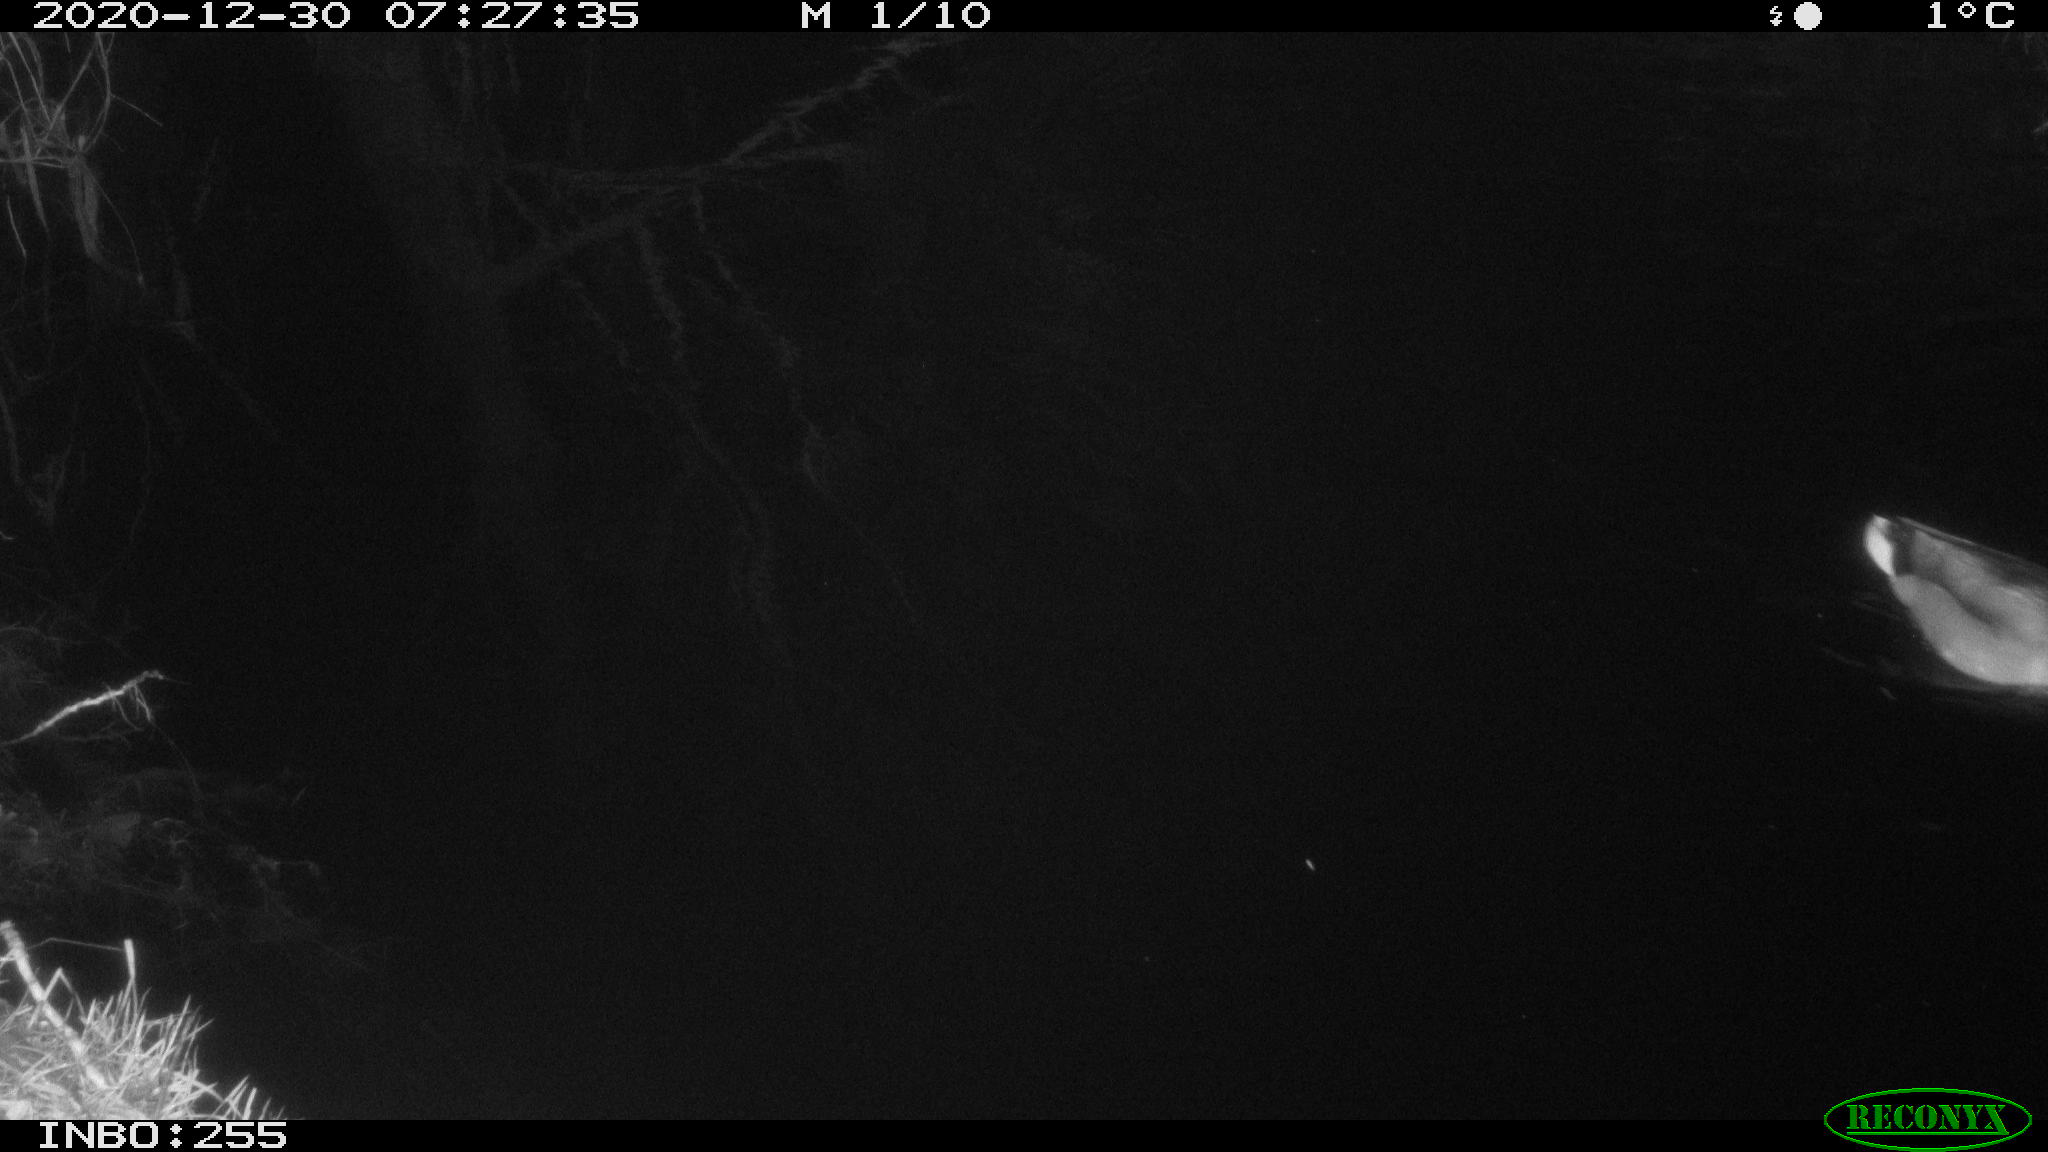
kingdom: Animalia
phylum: Chordata
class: Aves
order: Anseriformes
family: Anatidae
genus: Anas
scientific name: Anas platyrhynchos
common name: Mallard
